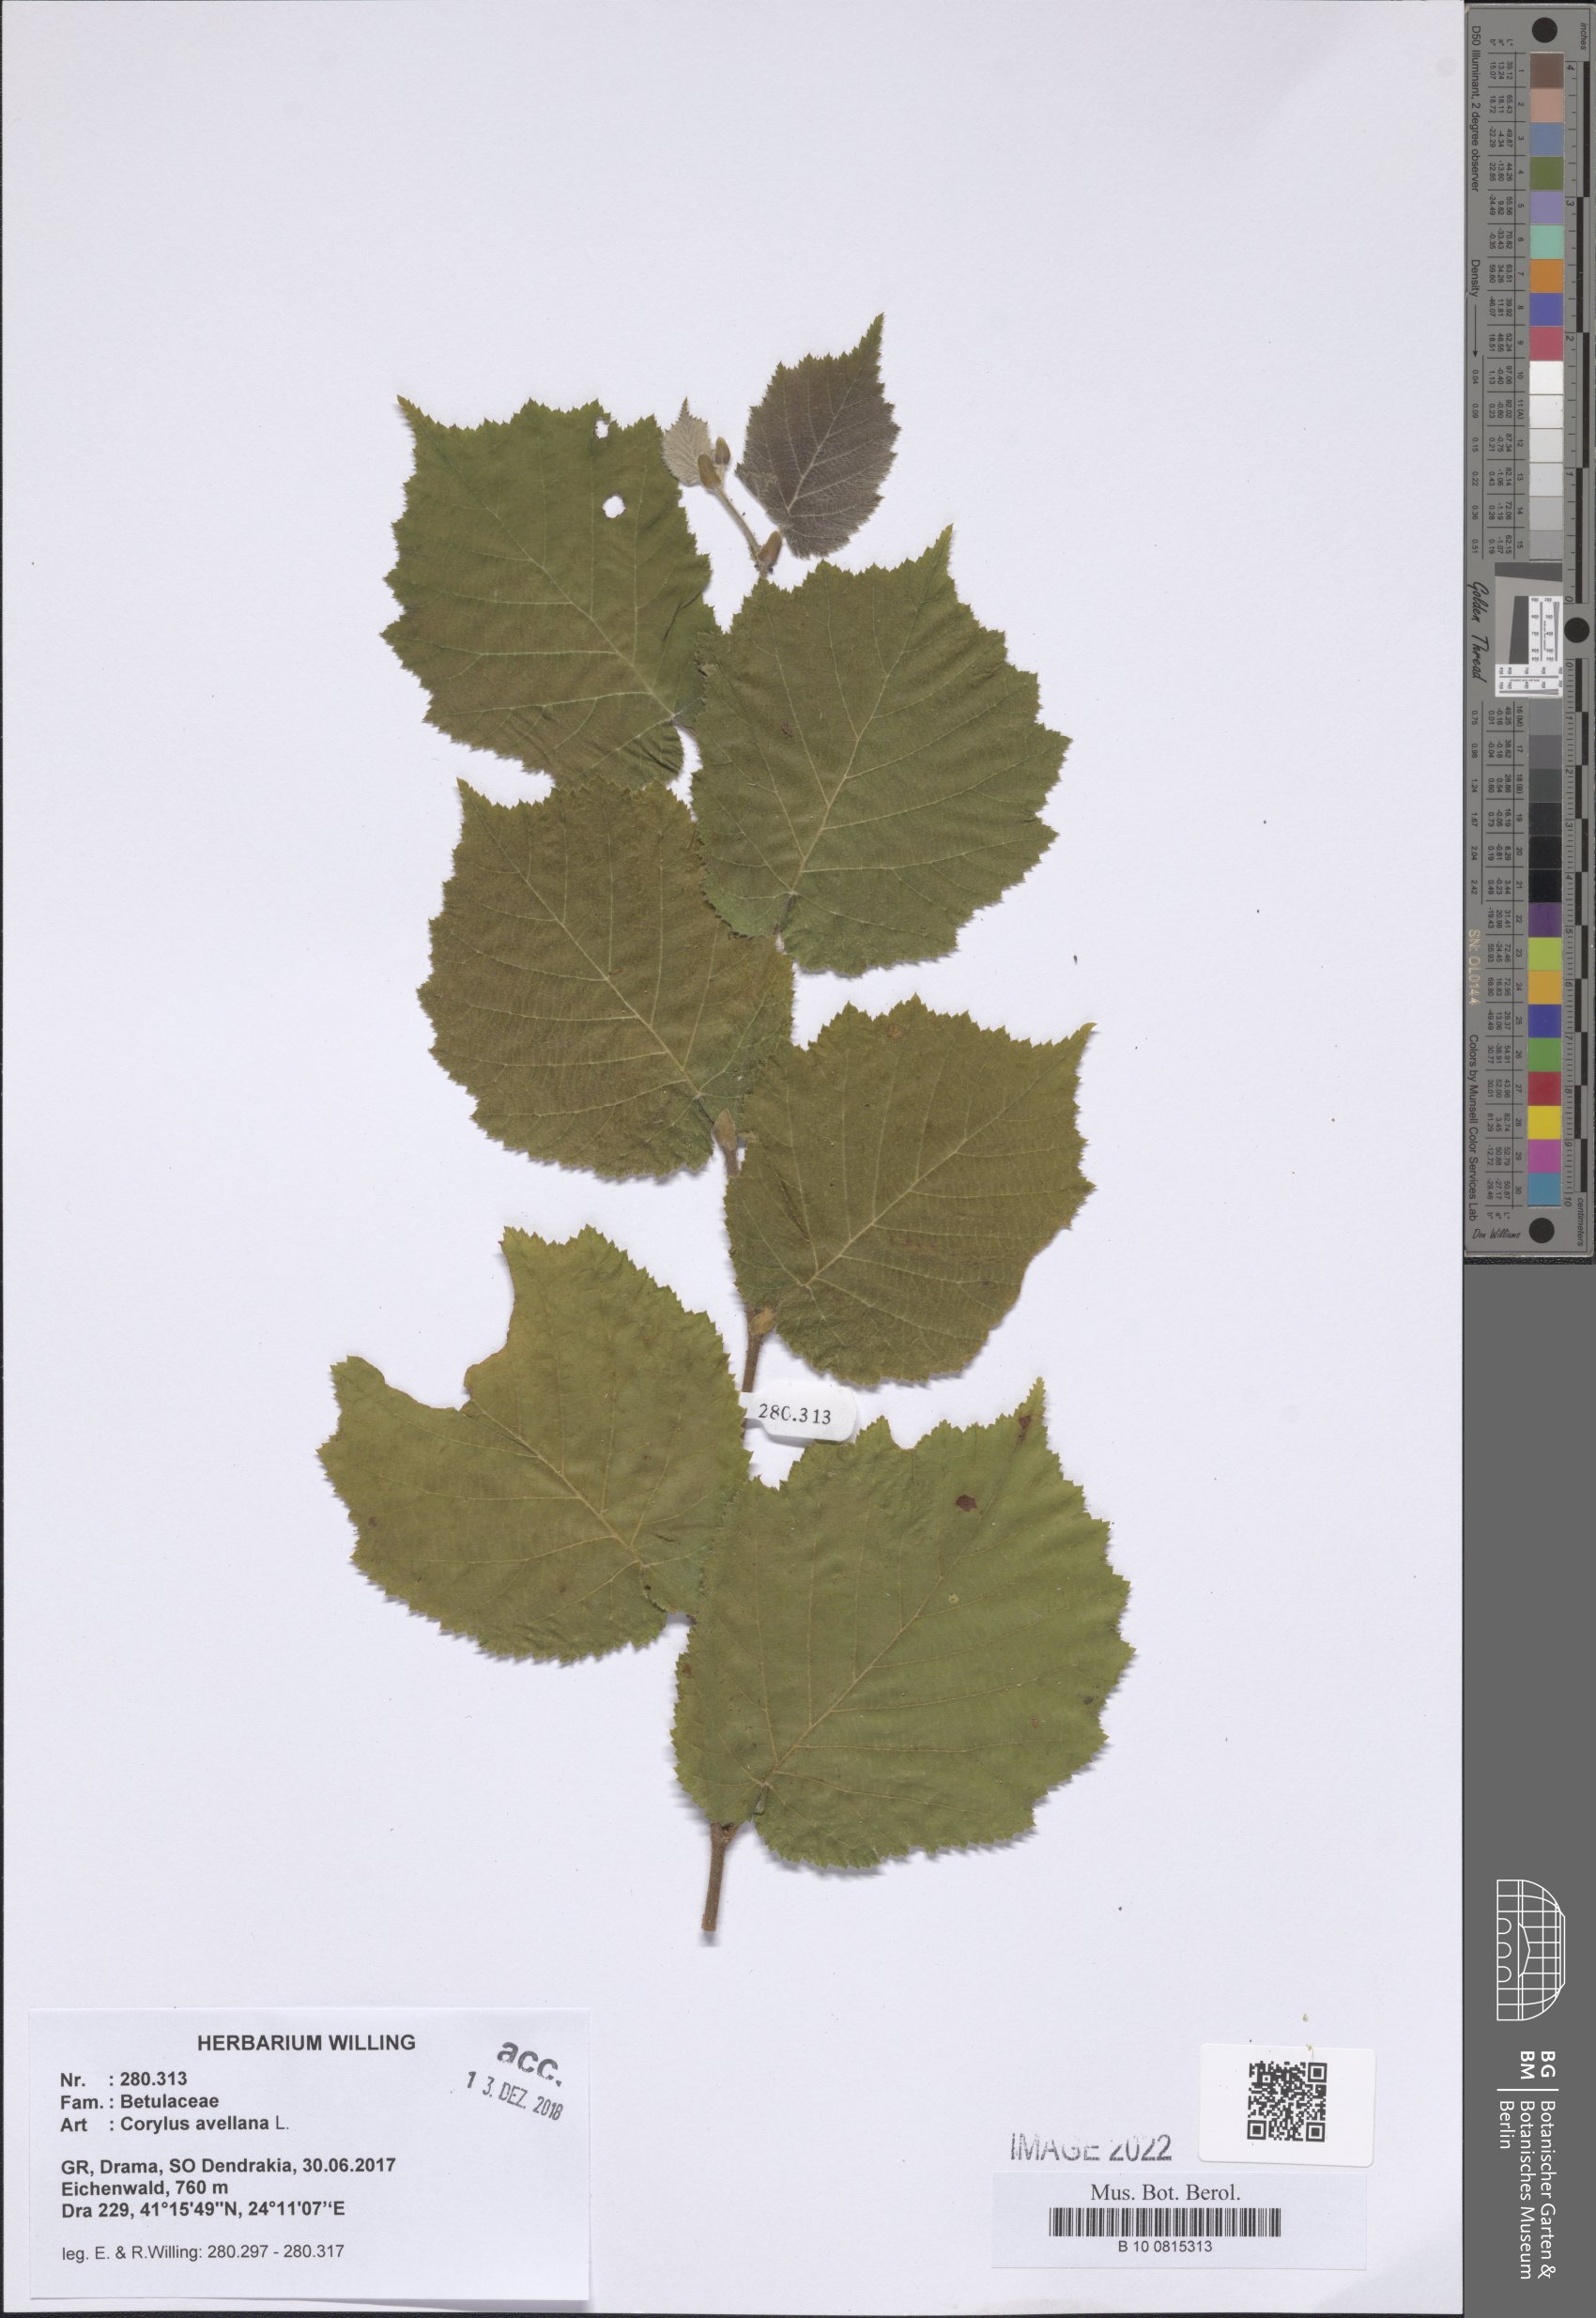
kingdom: Plantae
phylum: Tracheophyta
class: Magnoliopsida
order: Fagales
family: Betulaceae
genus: Corylus
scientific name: Corylus avellana
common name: European hazel
